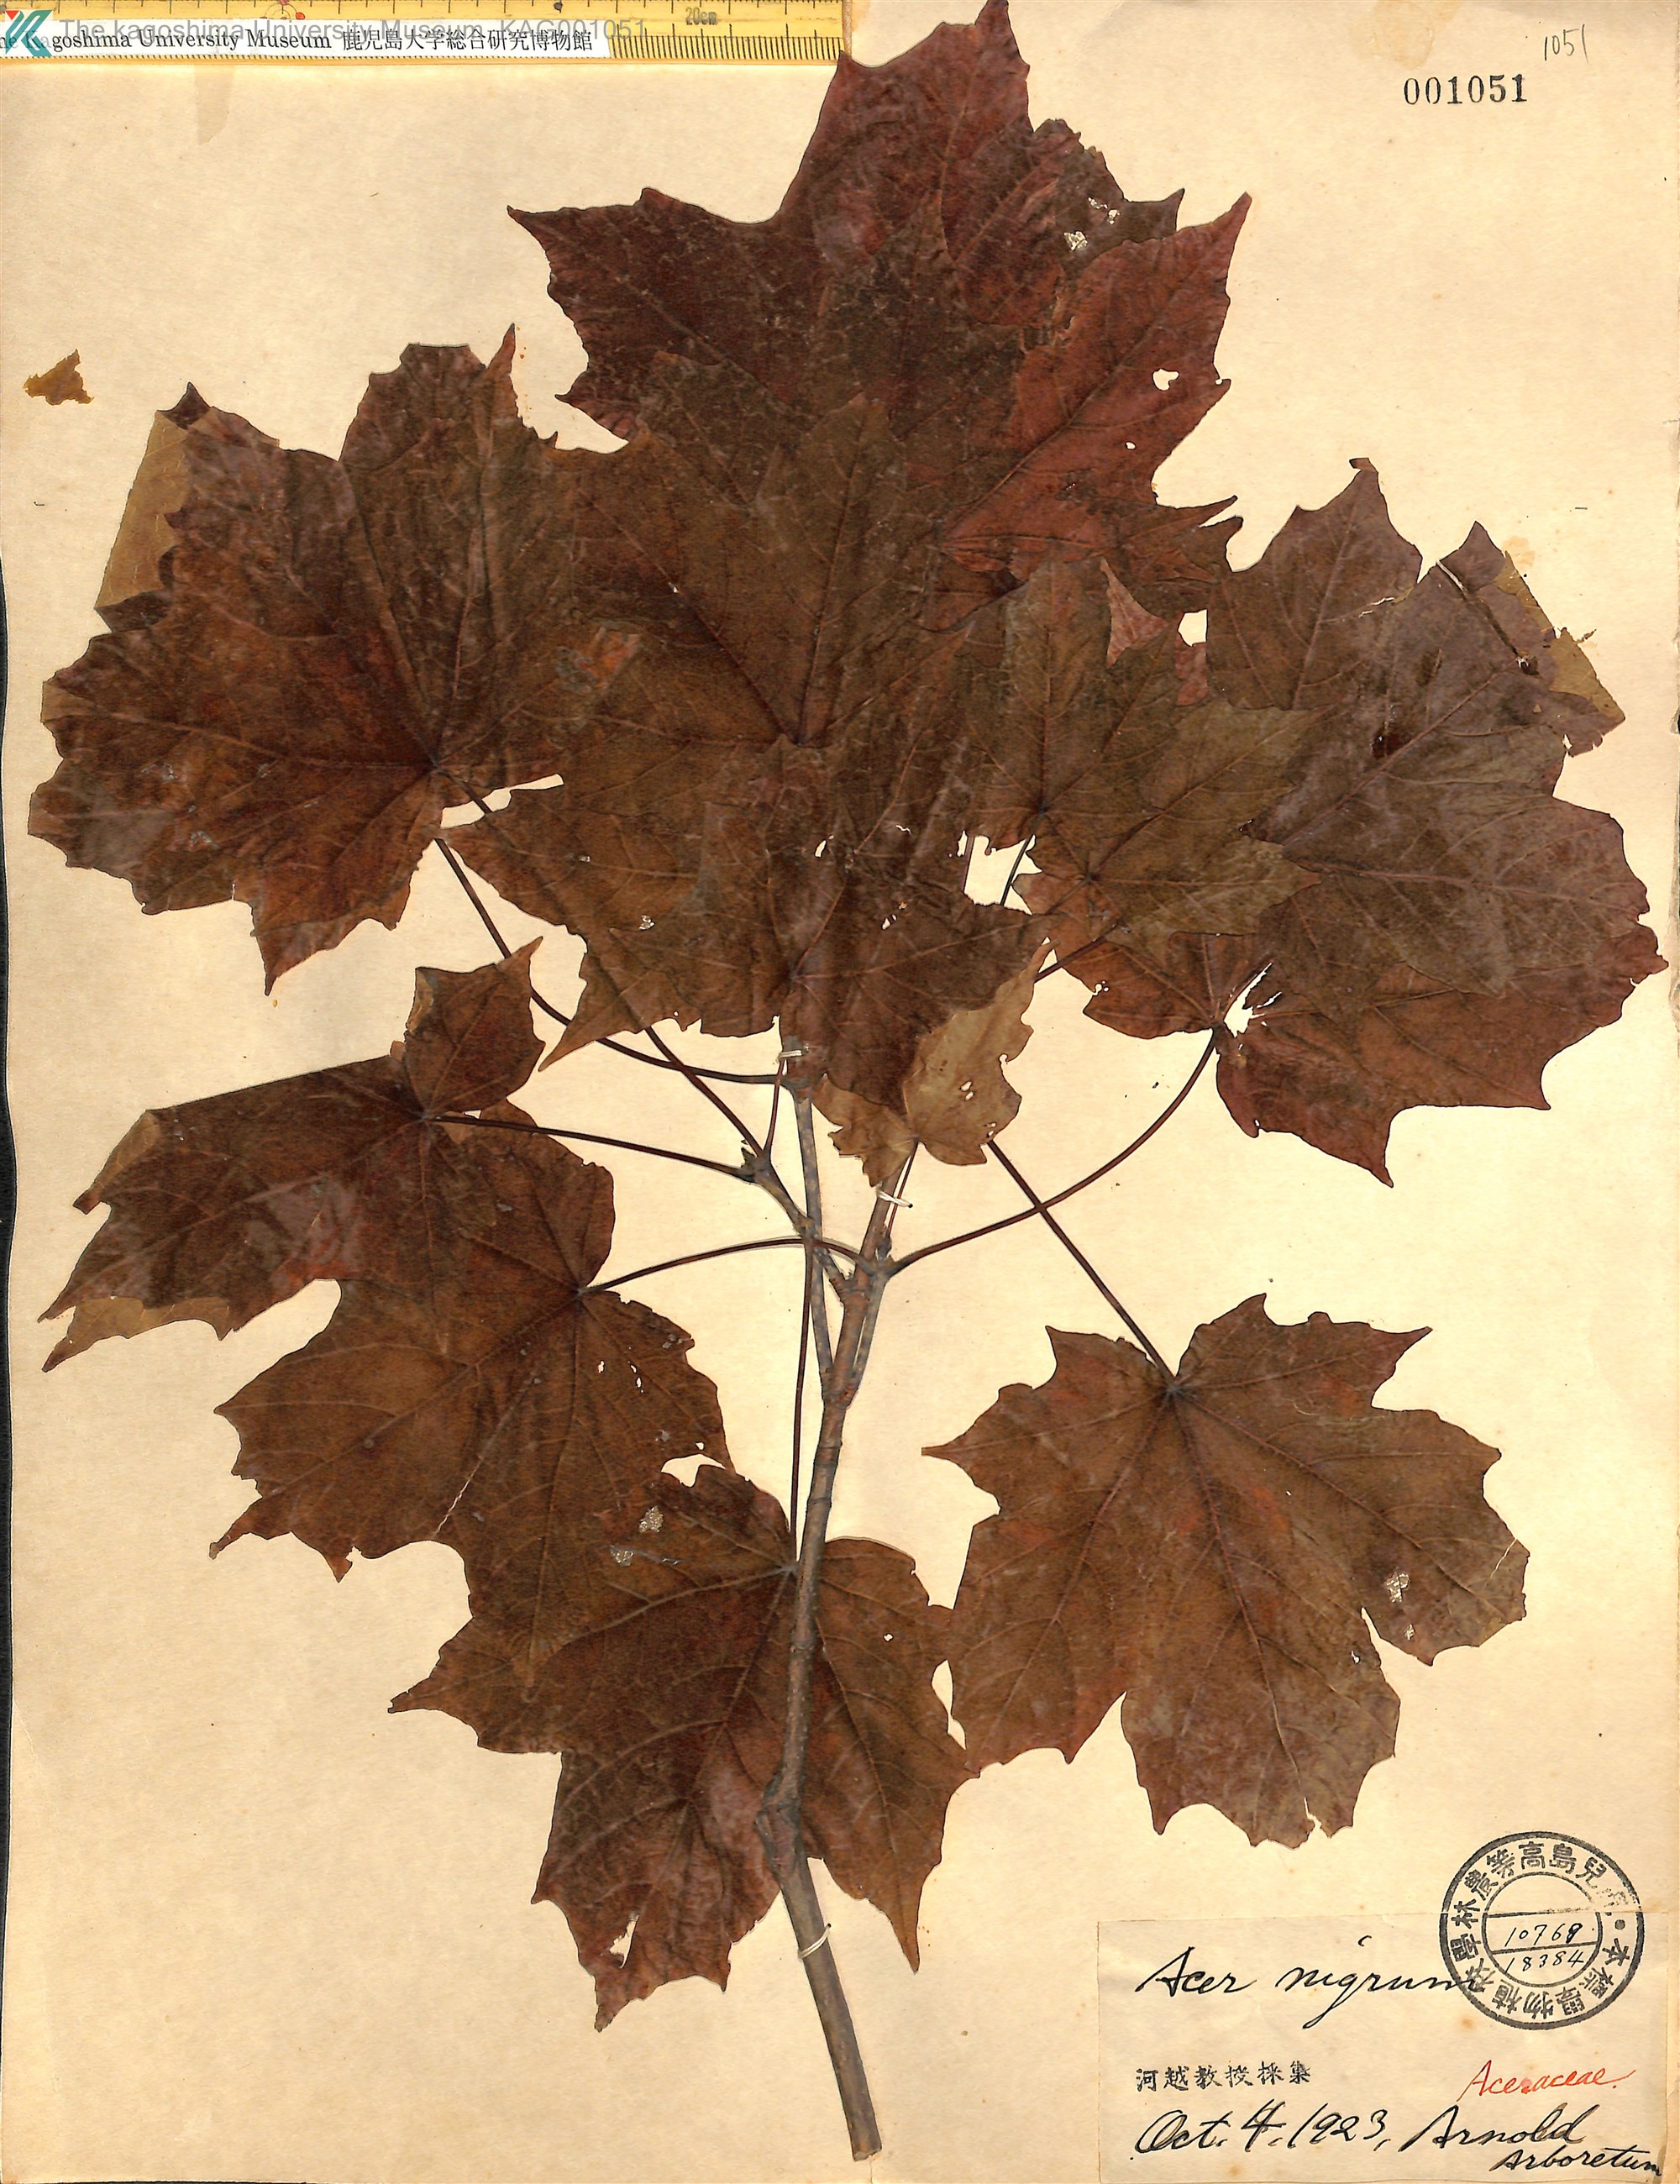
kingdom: Plantae
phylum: Tracheophyta
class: Magnoliopsida
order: Sapindales
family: Sapindaceae
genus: Acer
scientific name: Acer nigrum
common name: Black maple
